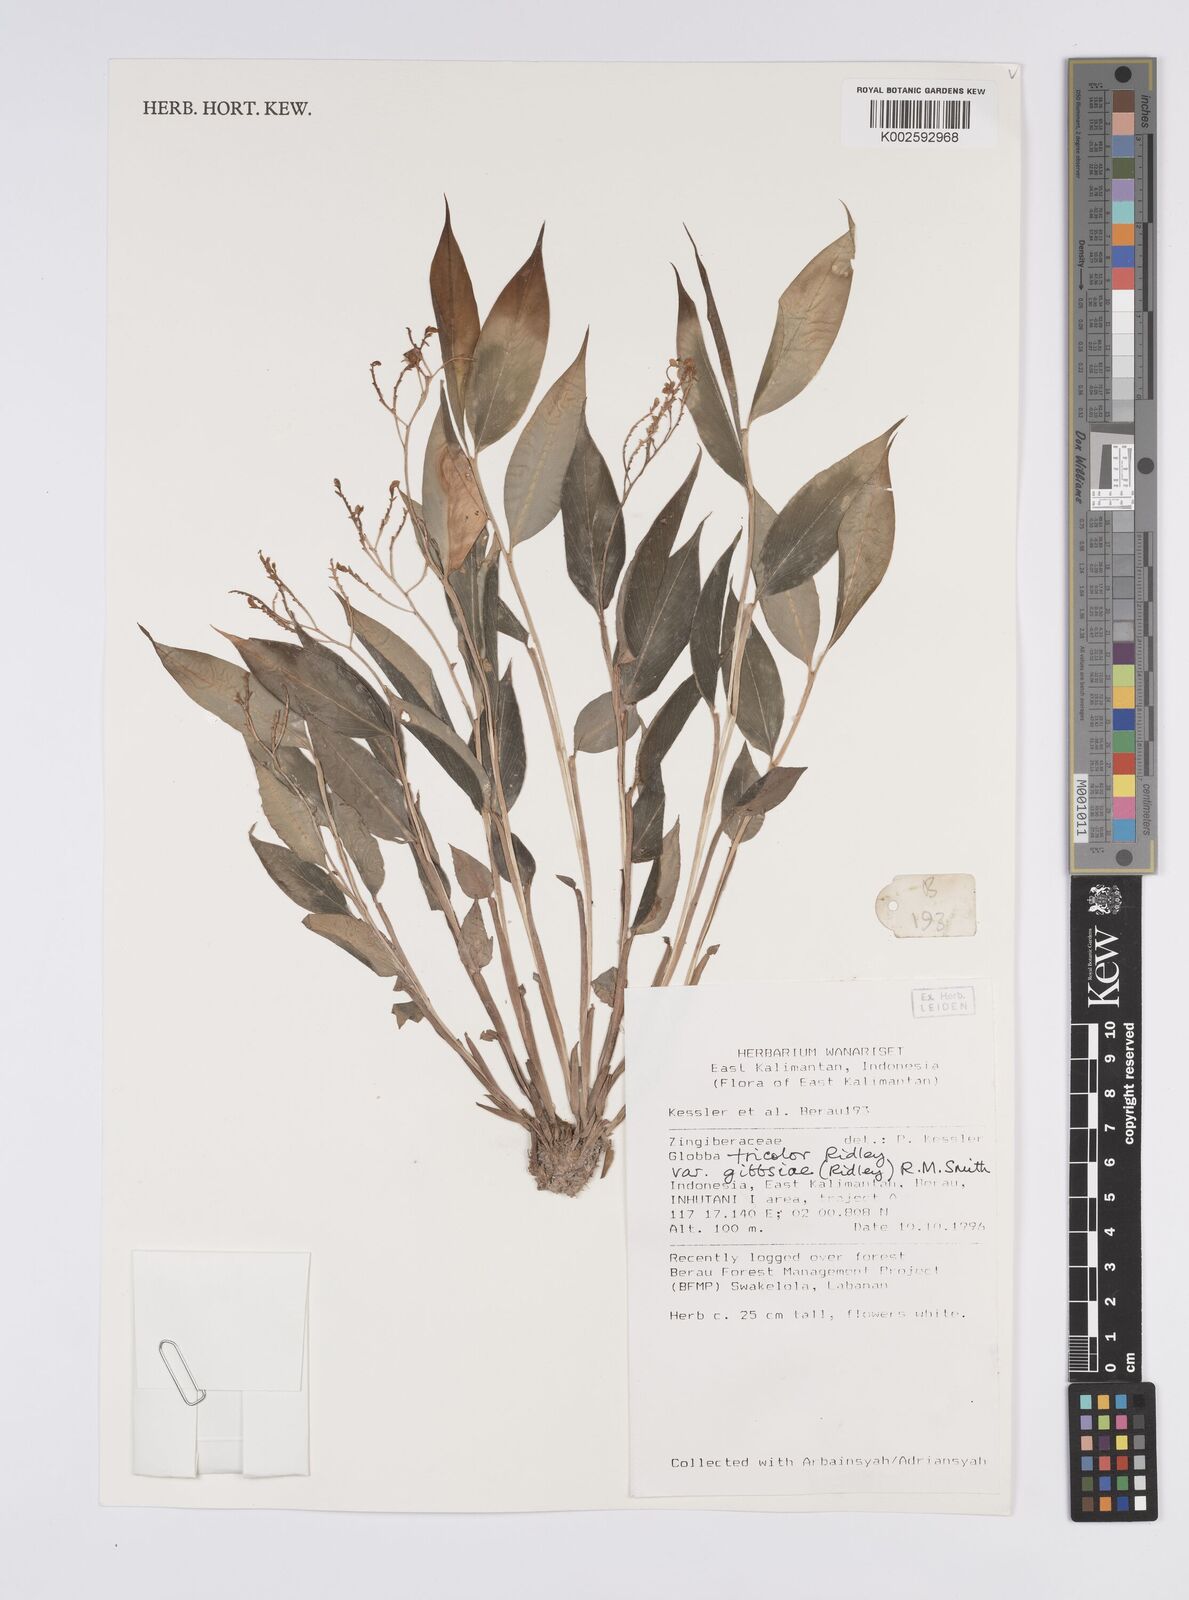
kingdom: Plantae
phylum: Tracheophyta
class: Liliopsida
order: Zingiberales
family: Zingiberaceae
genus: Globba
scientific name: Globba tricolor
